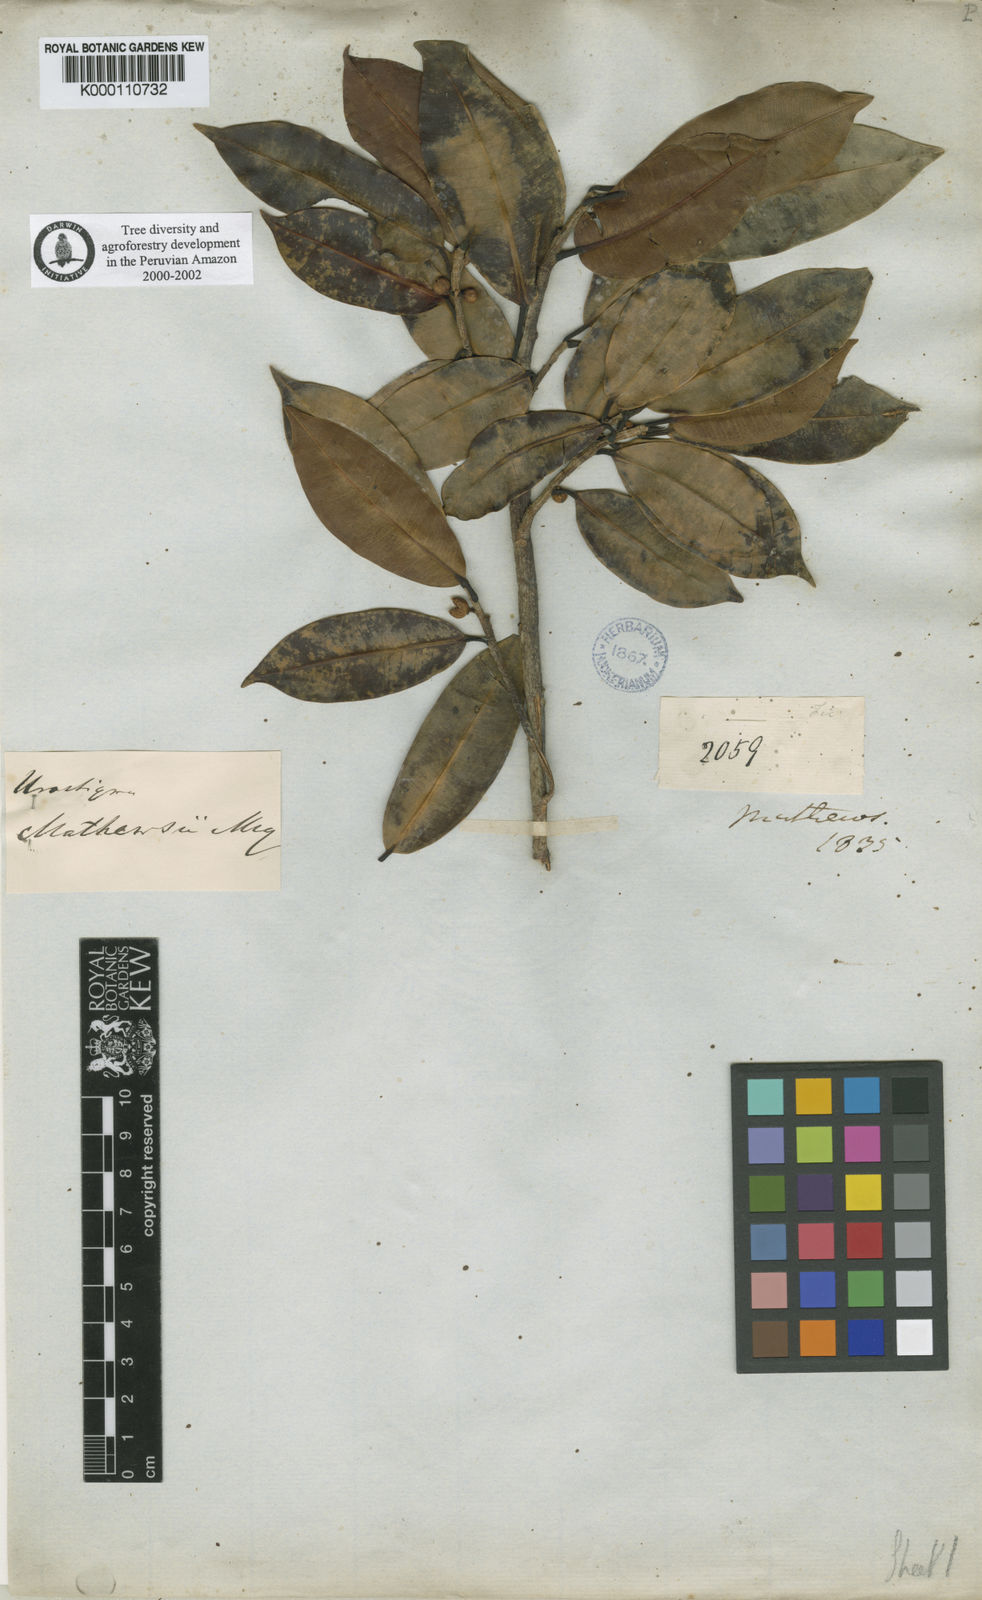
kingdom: Plantae
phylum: Tracheophyta
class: Magnoliopsida
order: Rosales
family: Moraceae
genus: Ficus
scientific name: Ficus mathewsii
